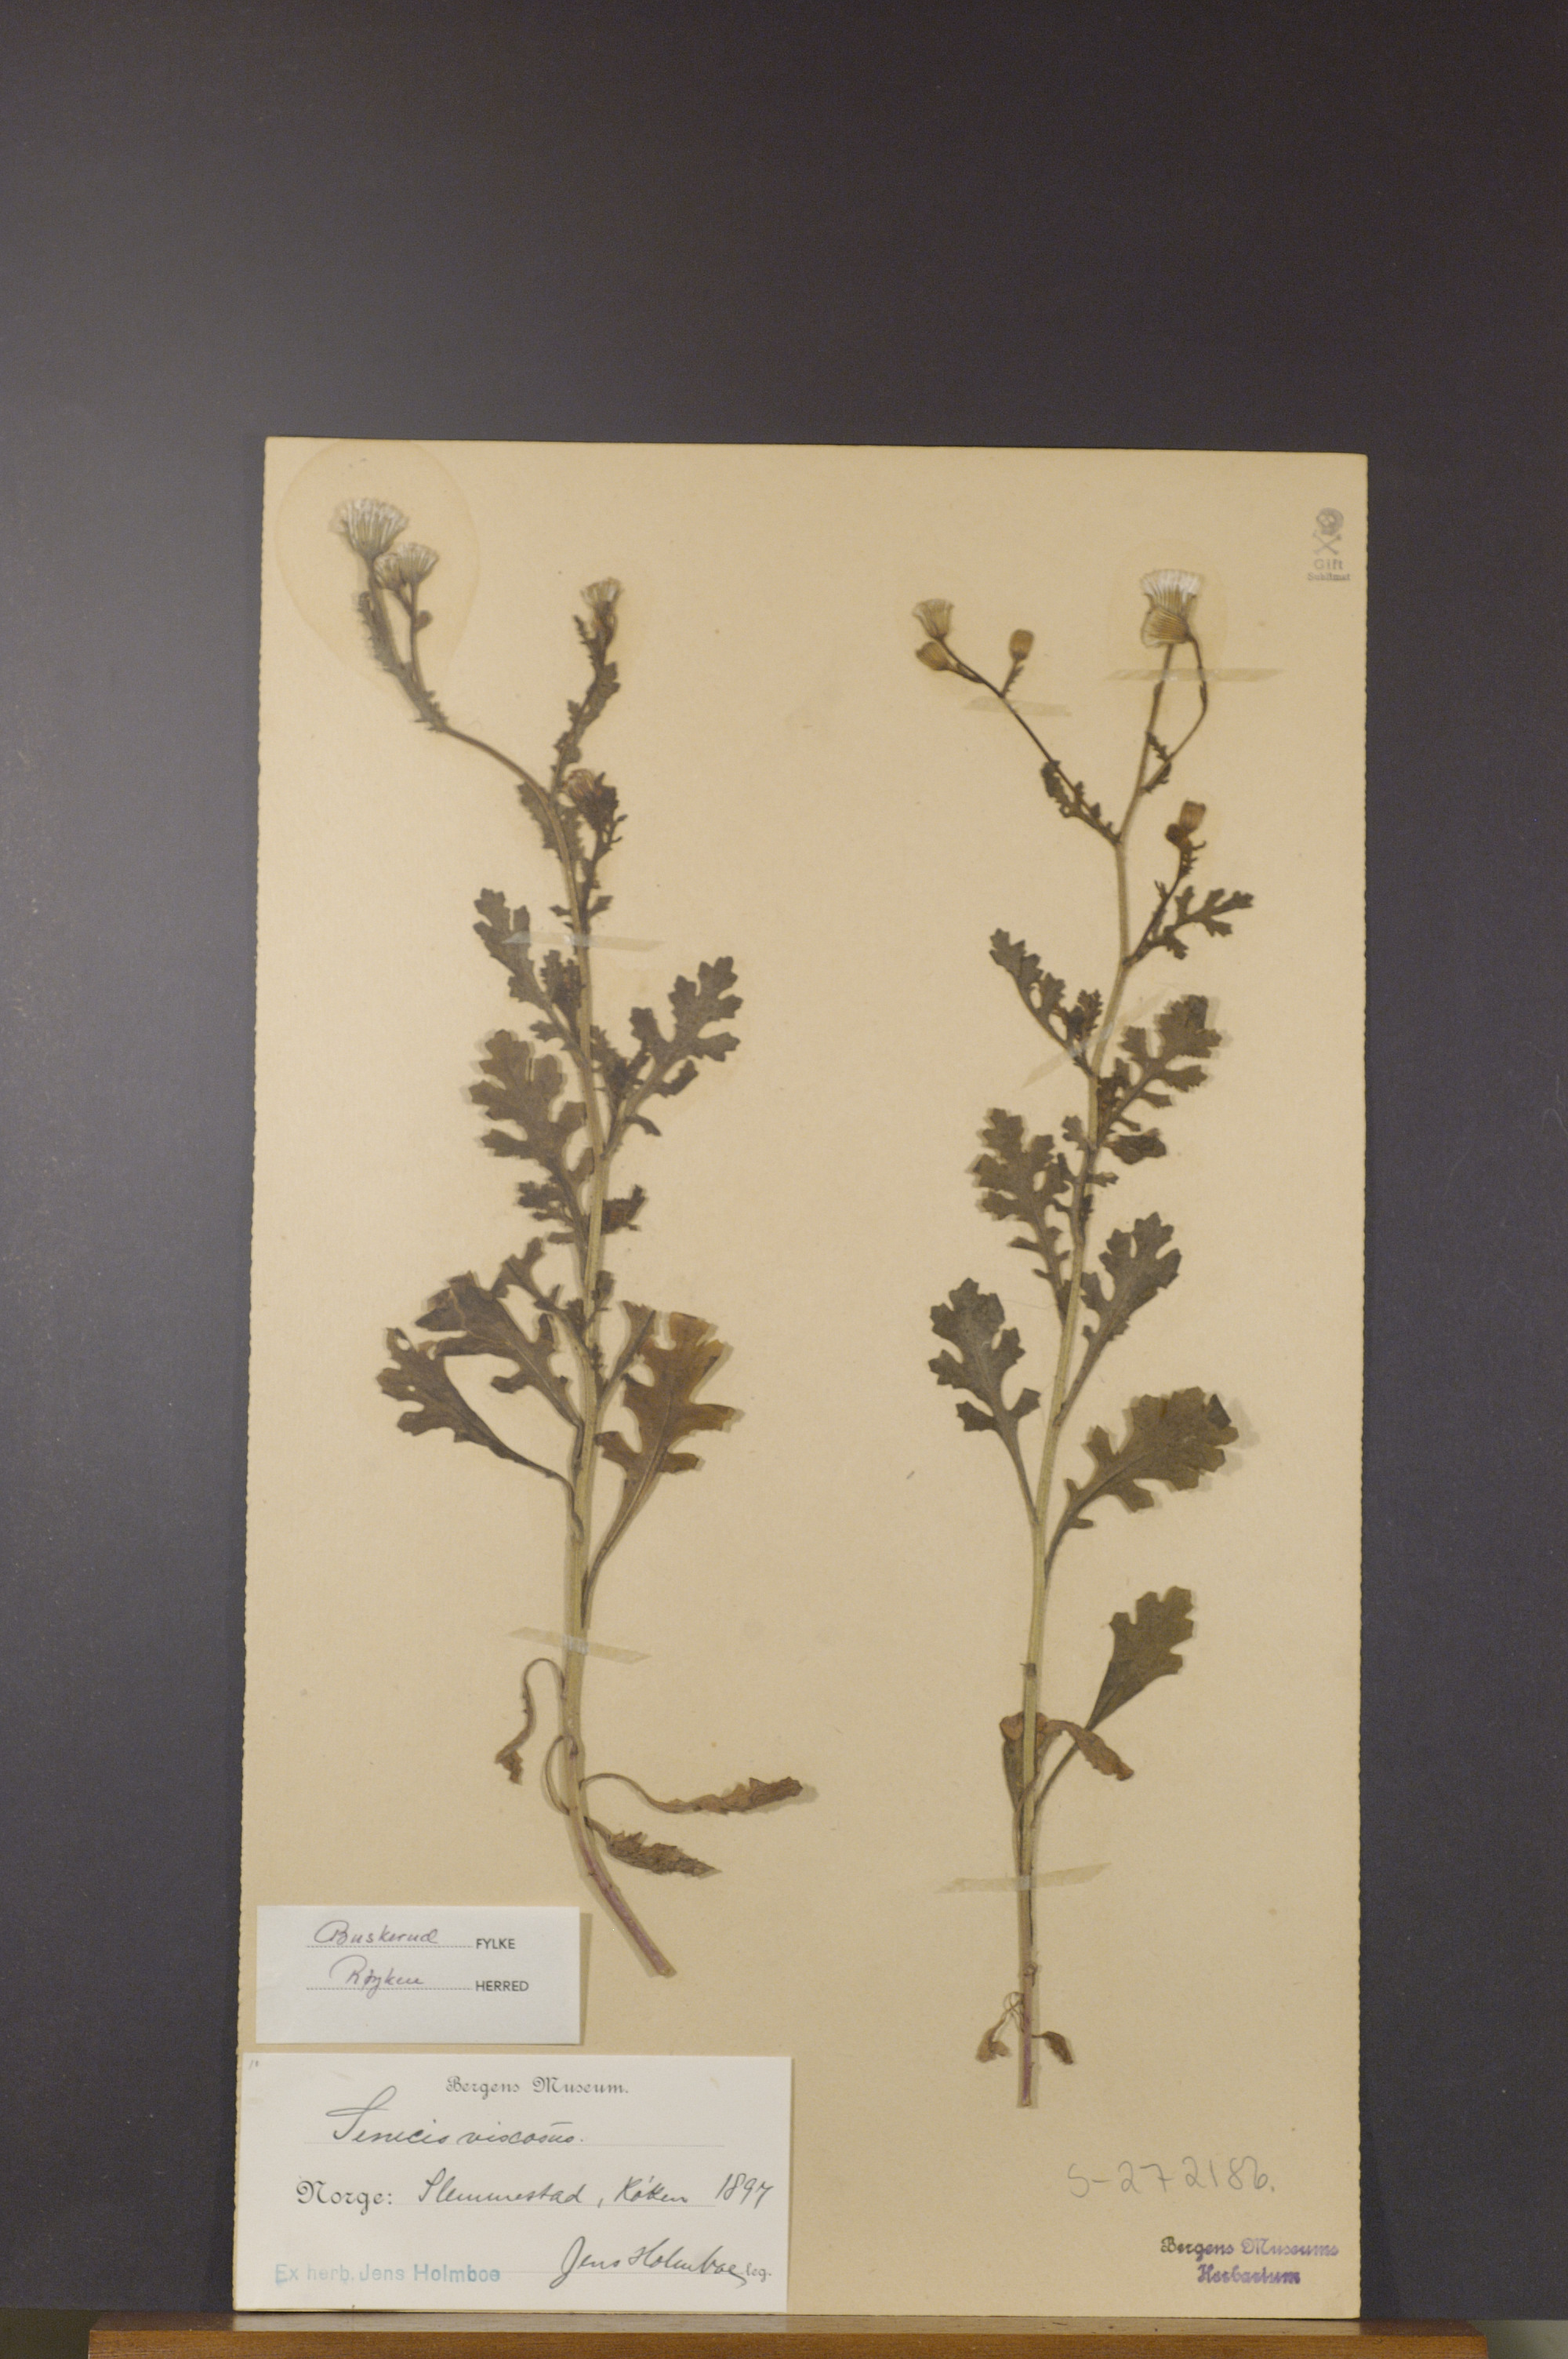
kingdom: Plantae
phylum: Tracheophyta
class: Magnoliopsida
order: Asterales
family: Asteraceae
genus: Senecio
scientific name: Senecio viscosus
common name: Sticky groundsel
